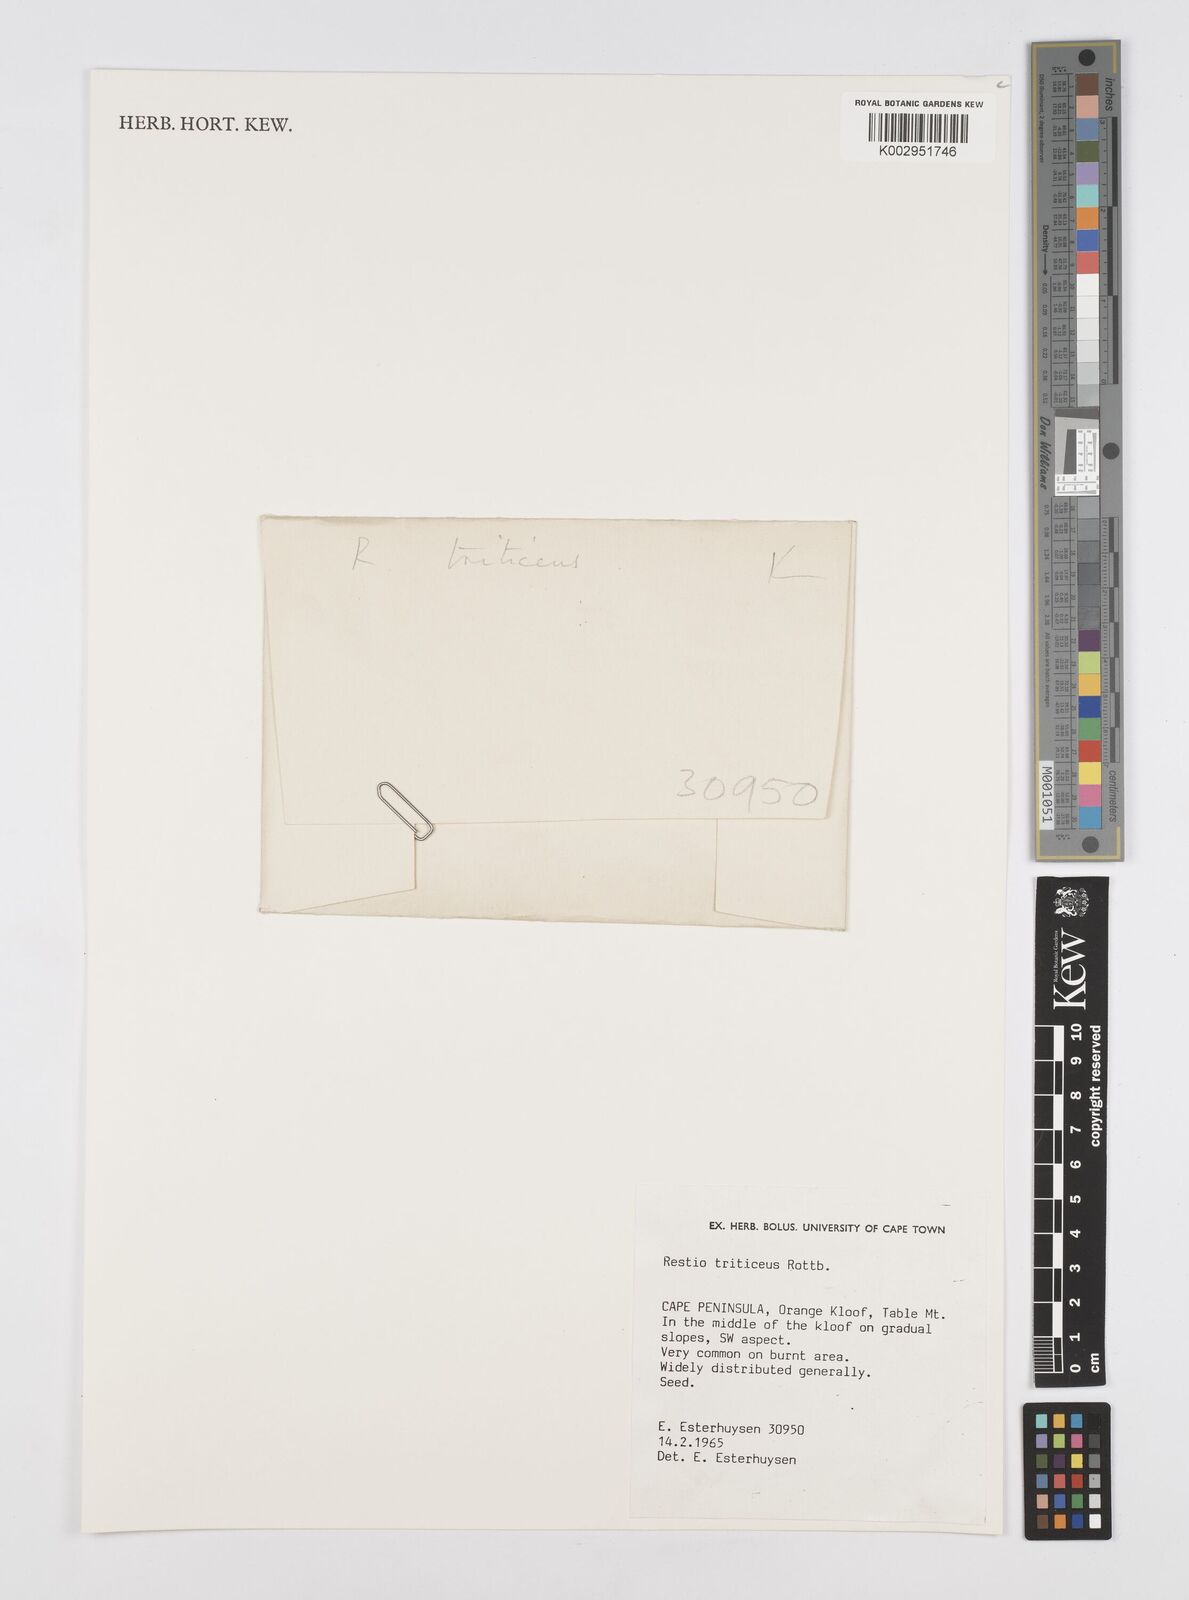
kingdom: Plantae
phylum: Tracheophyta
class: Liliopsida
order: Poales
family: Restionaceae
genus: Restio
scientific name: Restio triticeus
